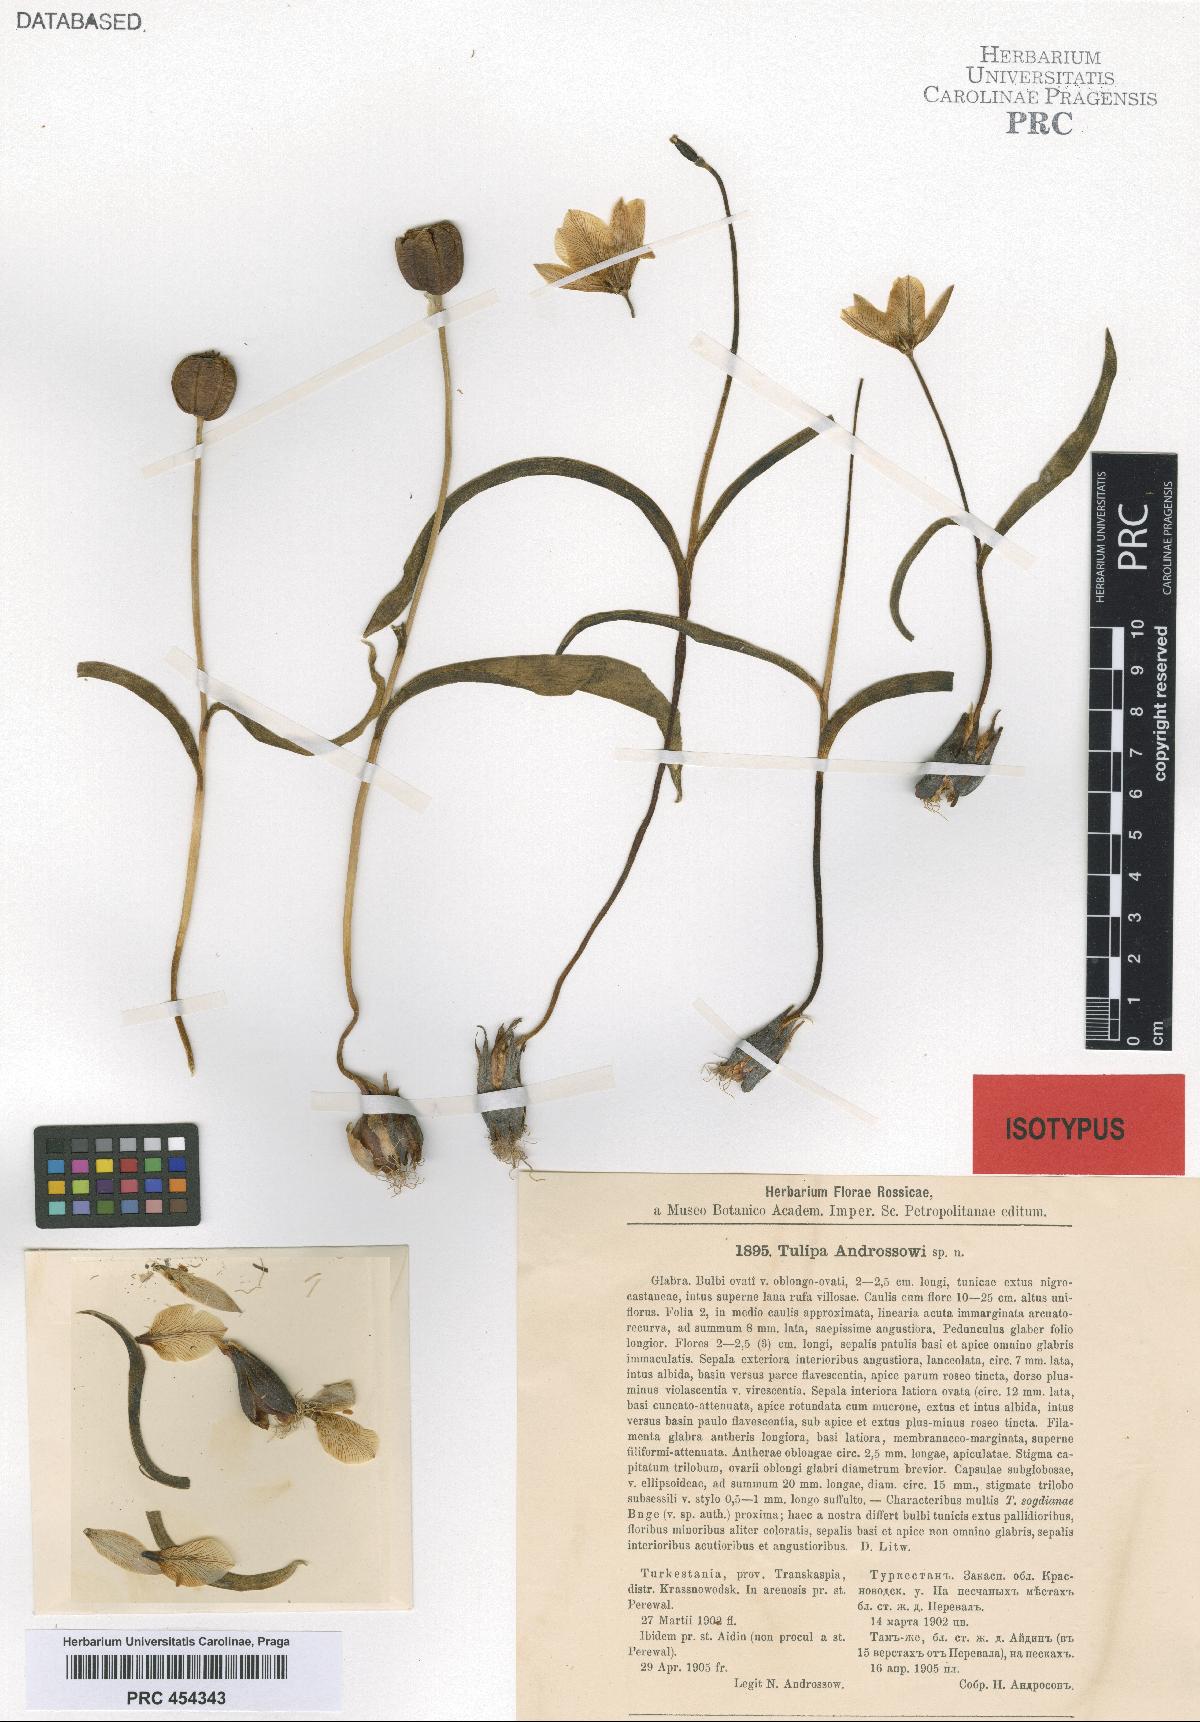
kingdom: Plantae
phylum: Tracheophyta
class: Liliopsida
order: Liliales
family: Liliaceae
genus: Tulipa
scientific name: Tulipa biflora
